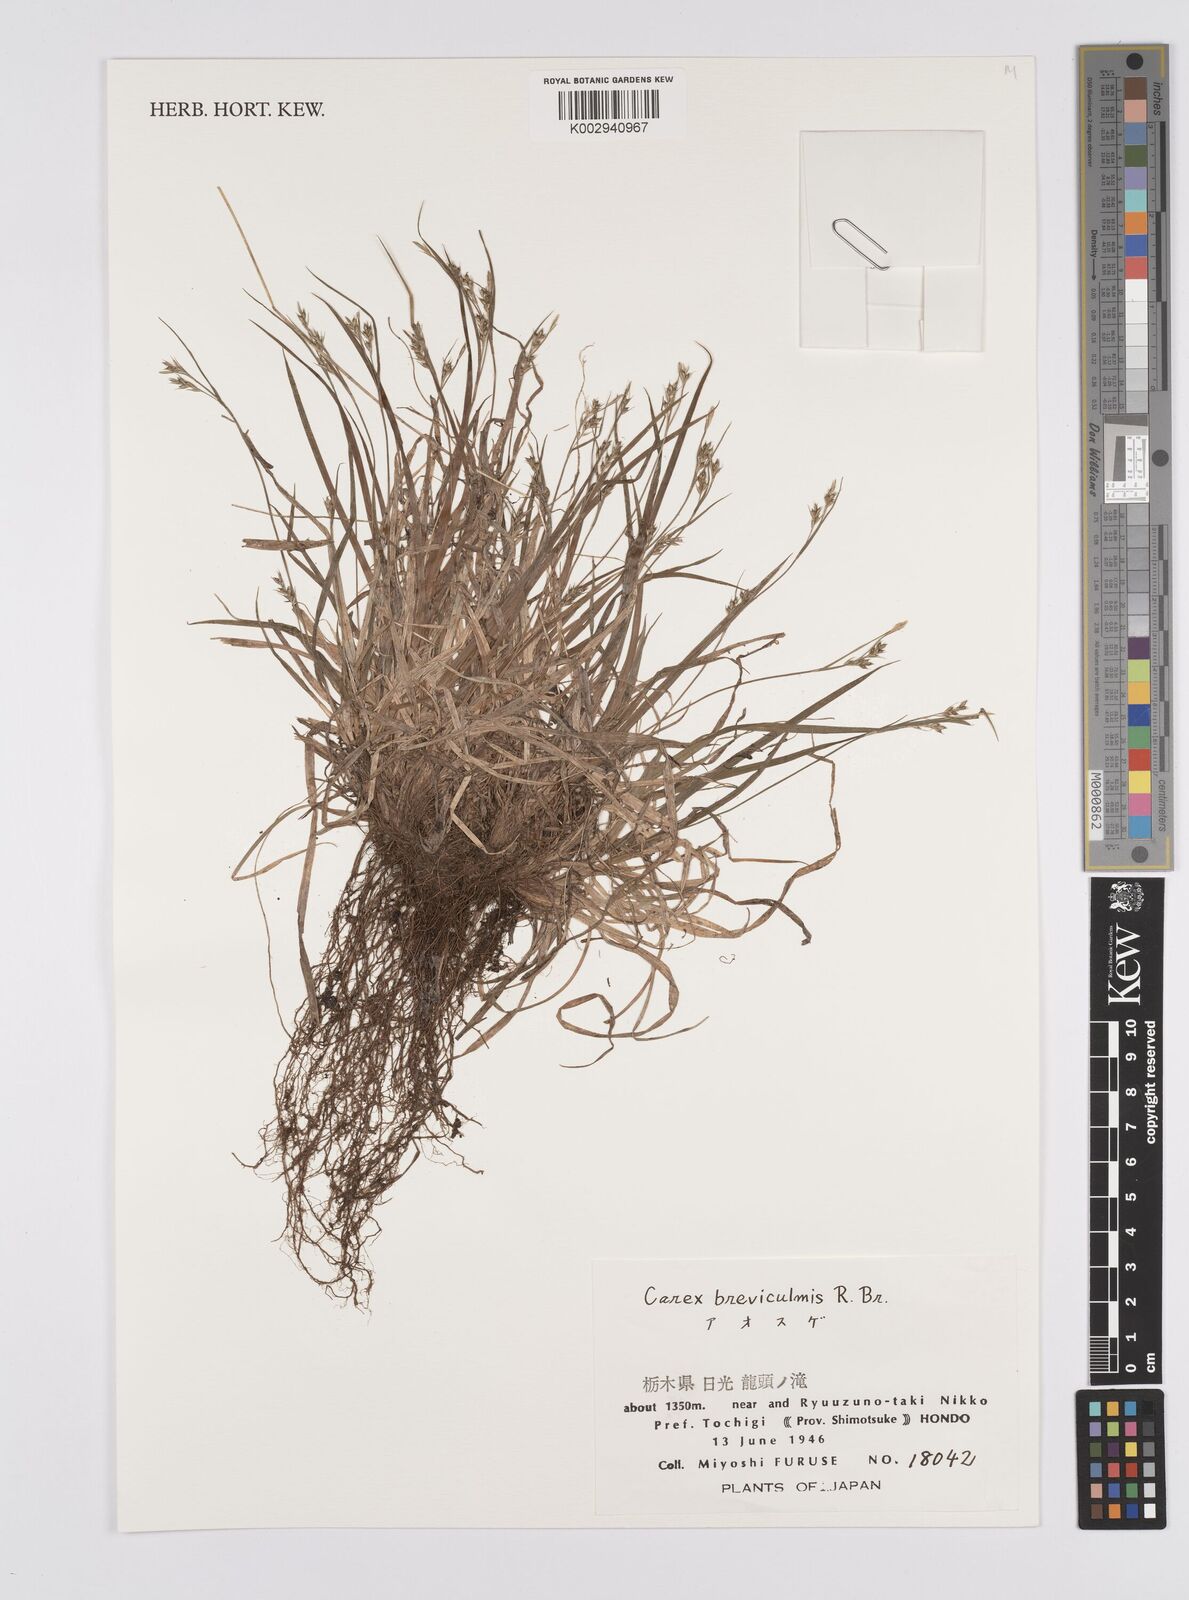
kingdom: Plantae
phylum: Tracheophyta
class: Liliopsida
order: Poales
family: Cyperaceae
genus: Carex
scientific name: Carex fibrillosa
